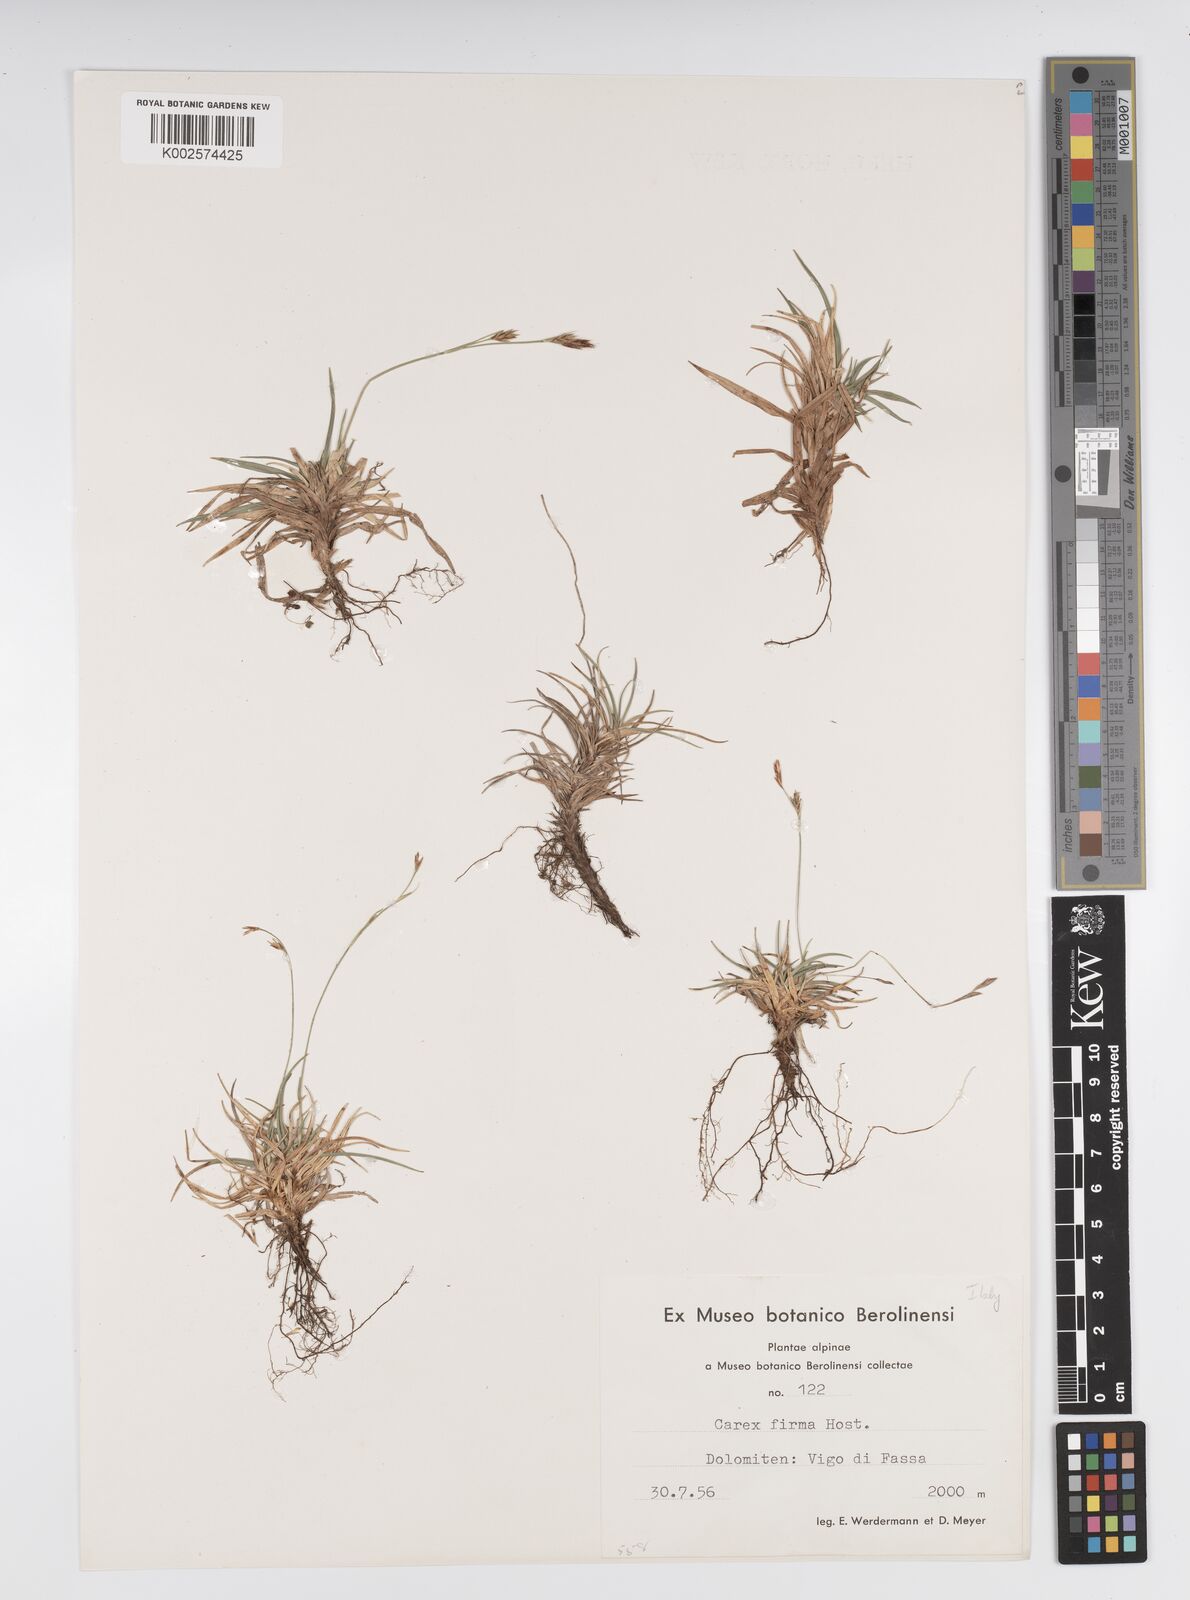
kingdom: Plantae
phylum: Tracheophyta
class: Liliopsida
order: Poales
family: Cyperaceae
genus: Carex
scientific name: Carex firma
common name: Dwarf pillow sedge
